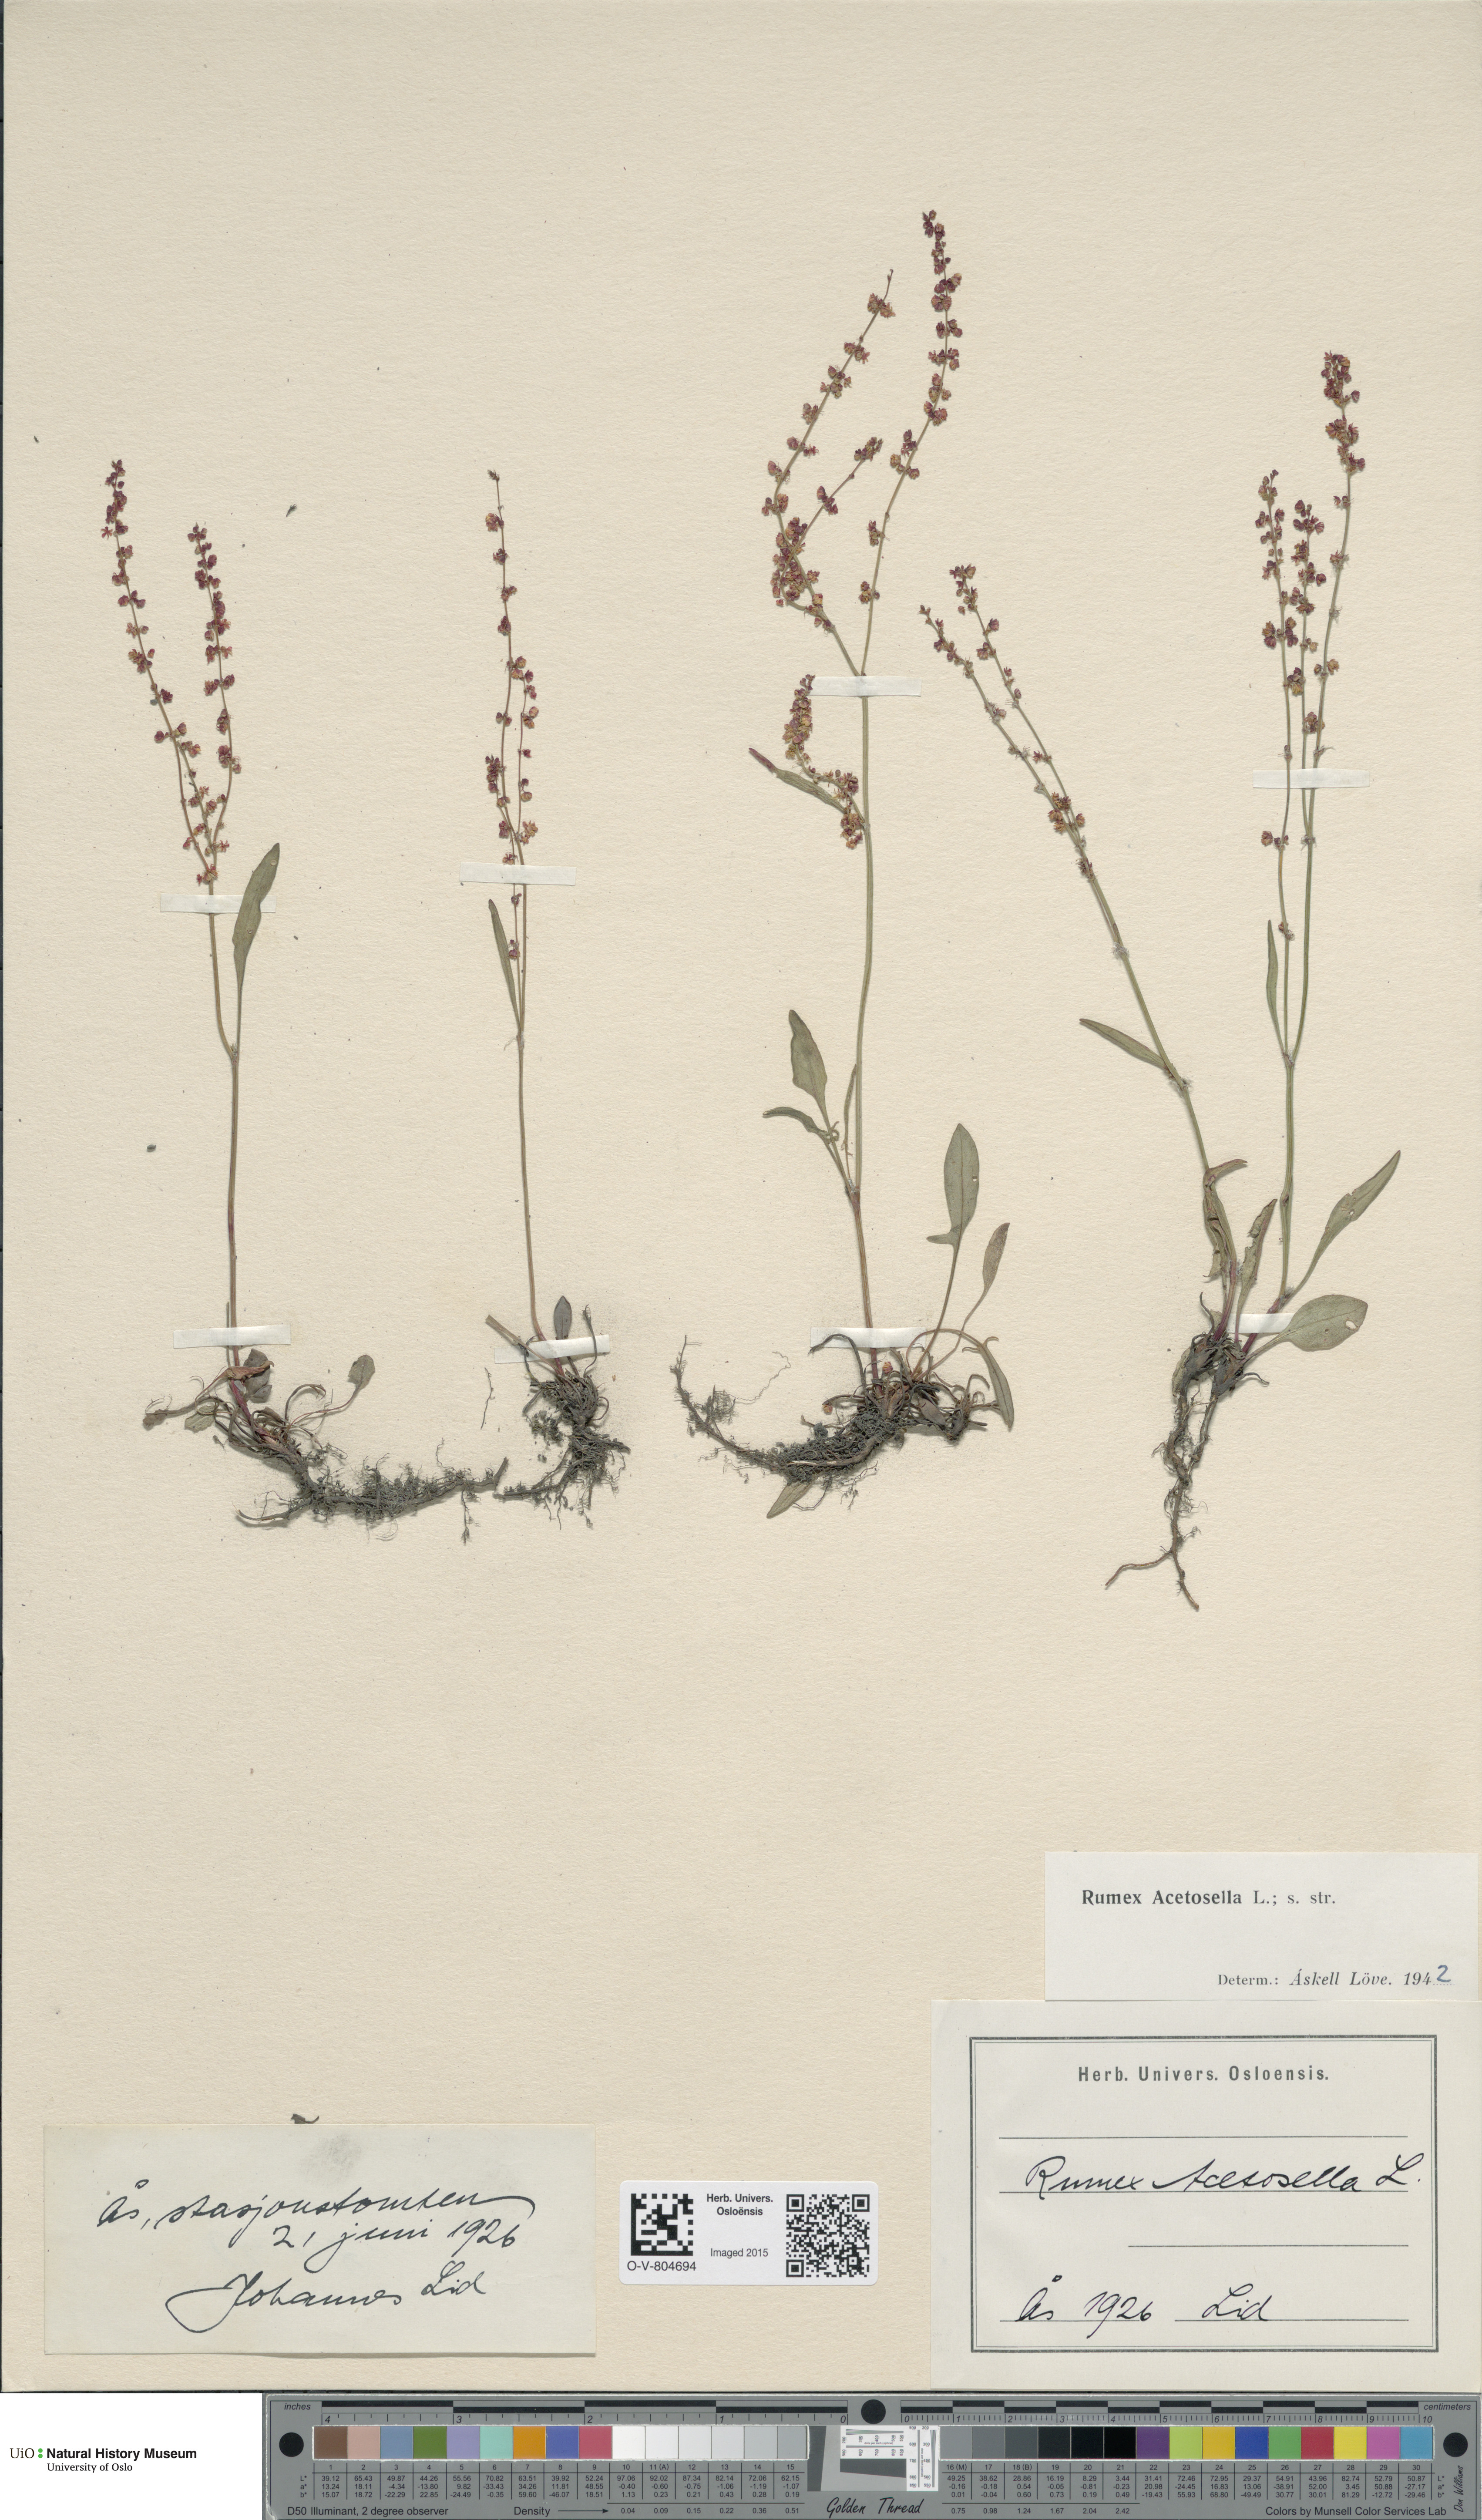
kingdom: Plantae
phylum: Tracheophyta
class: Magnoliopsida
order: Caryophyllales
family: Polygonaceae
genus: Rumex
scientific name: Rumex acetosella
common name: Common sheep sorrel
